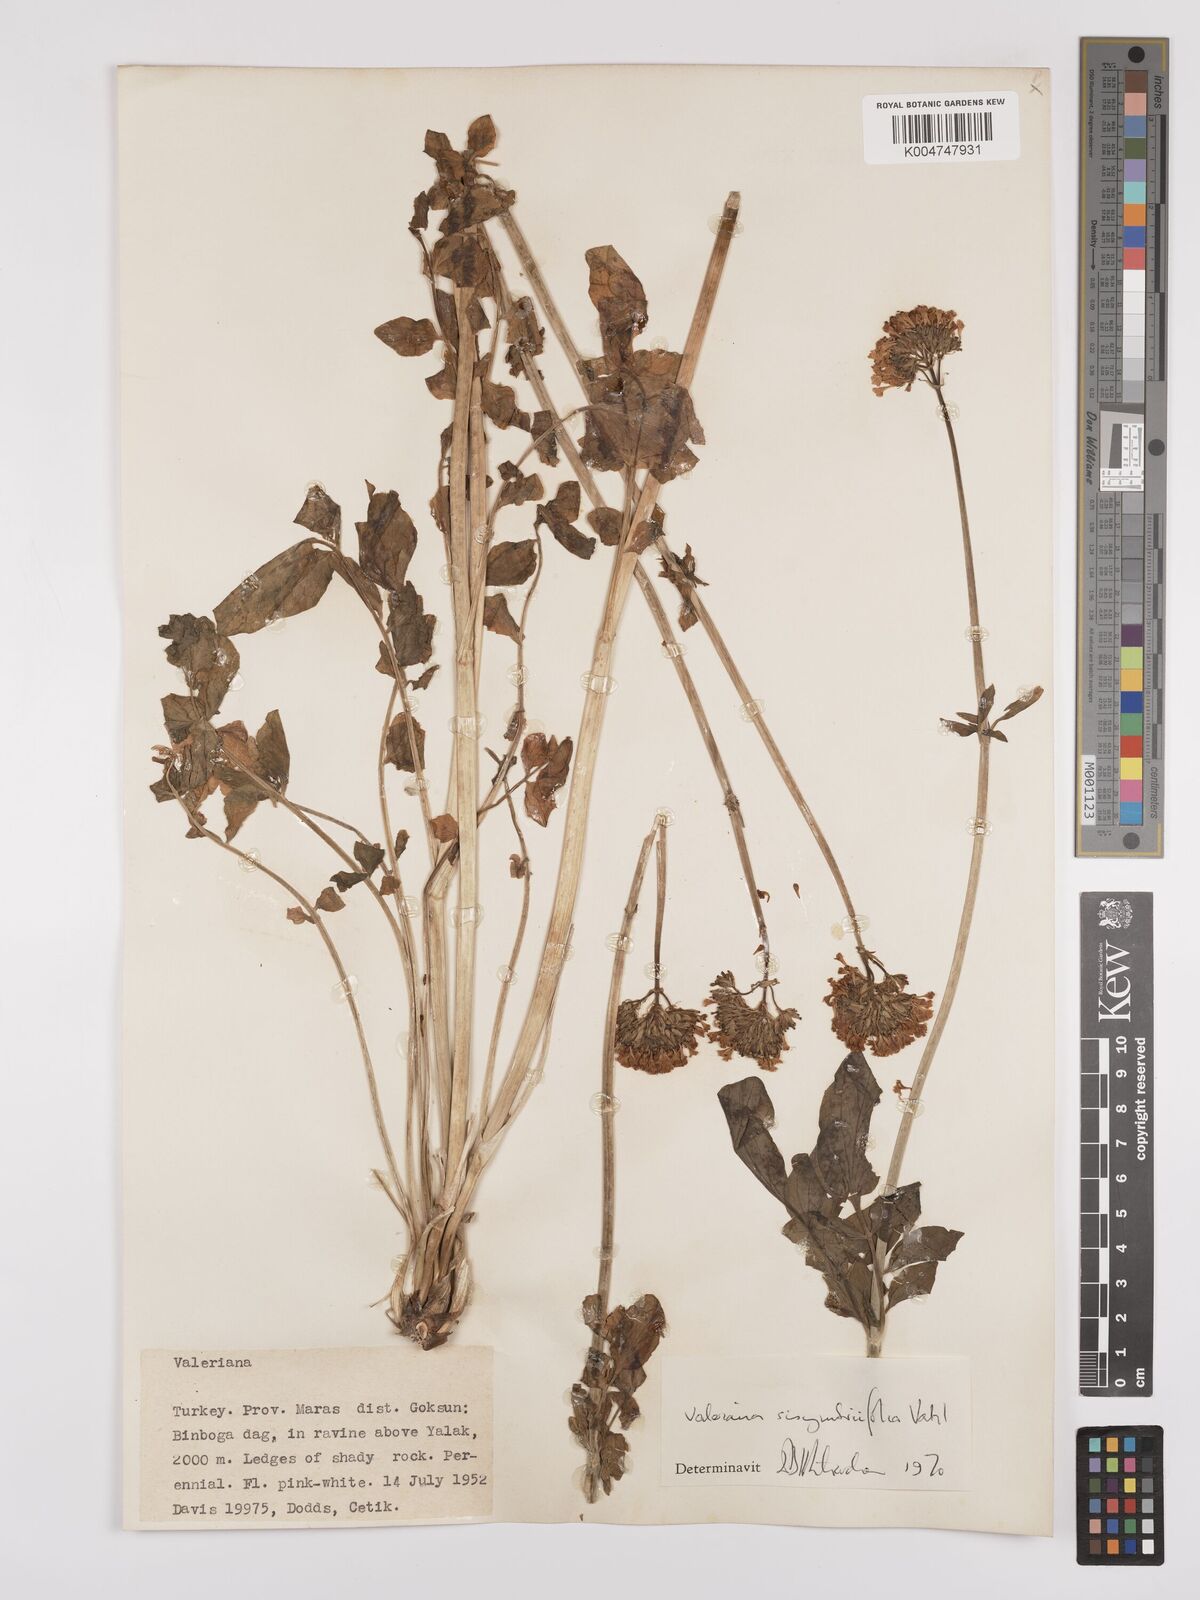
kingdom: Plantae
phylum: Tracheophyta
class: Magnoliopsida
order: Dipsacales
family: Caprifoliaceae
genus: Valeriana
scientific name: Valeriana
